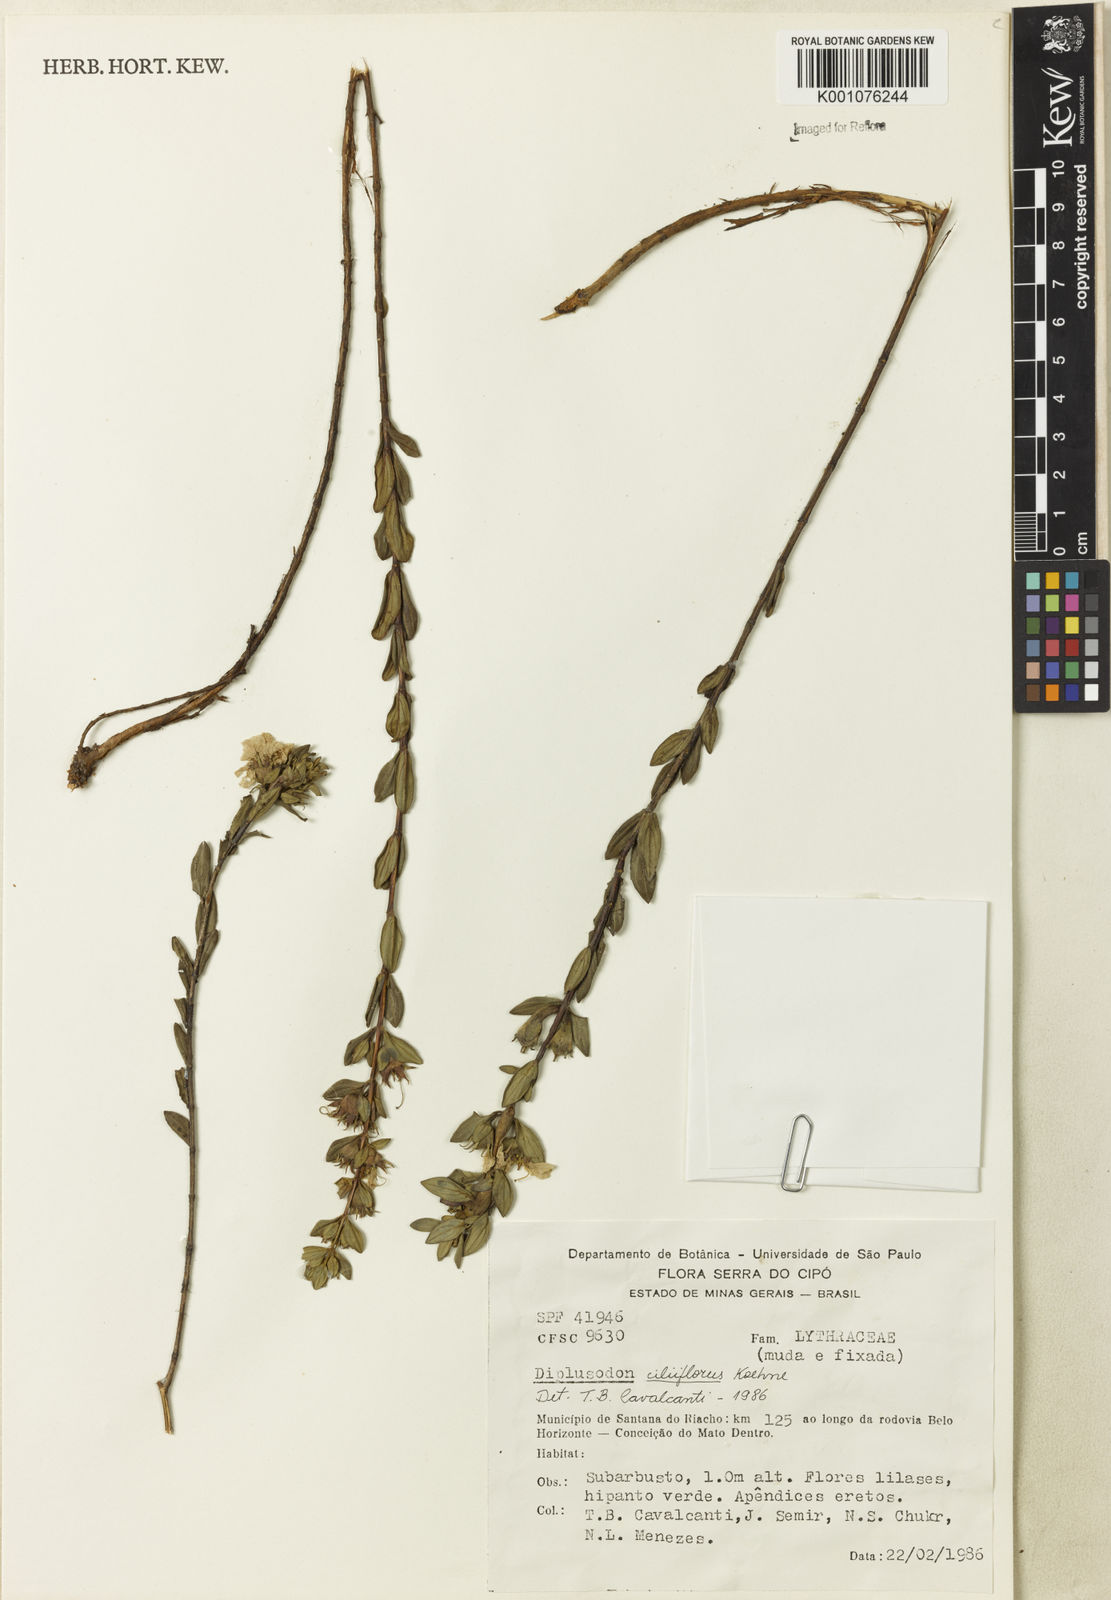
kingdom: Plantae
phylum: Tracheophyta
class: Magnoliopsida
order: Myrtales
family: Lythraceae
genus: Diplusodon
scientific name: Diplusodon ciliiflorus
